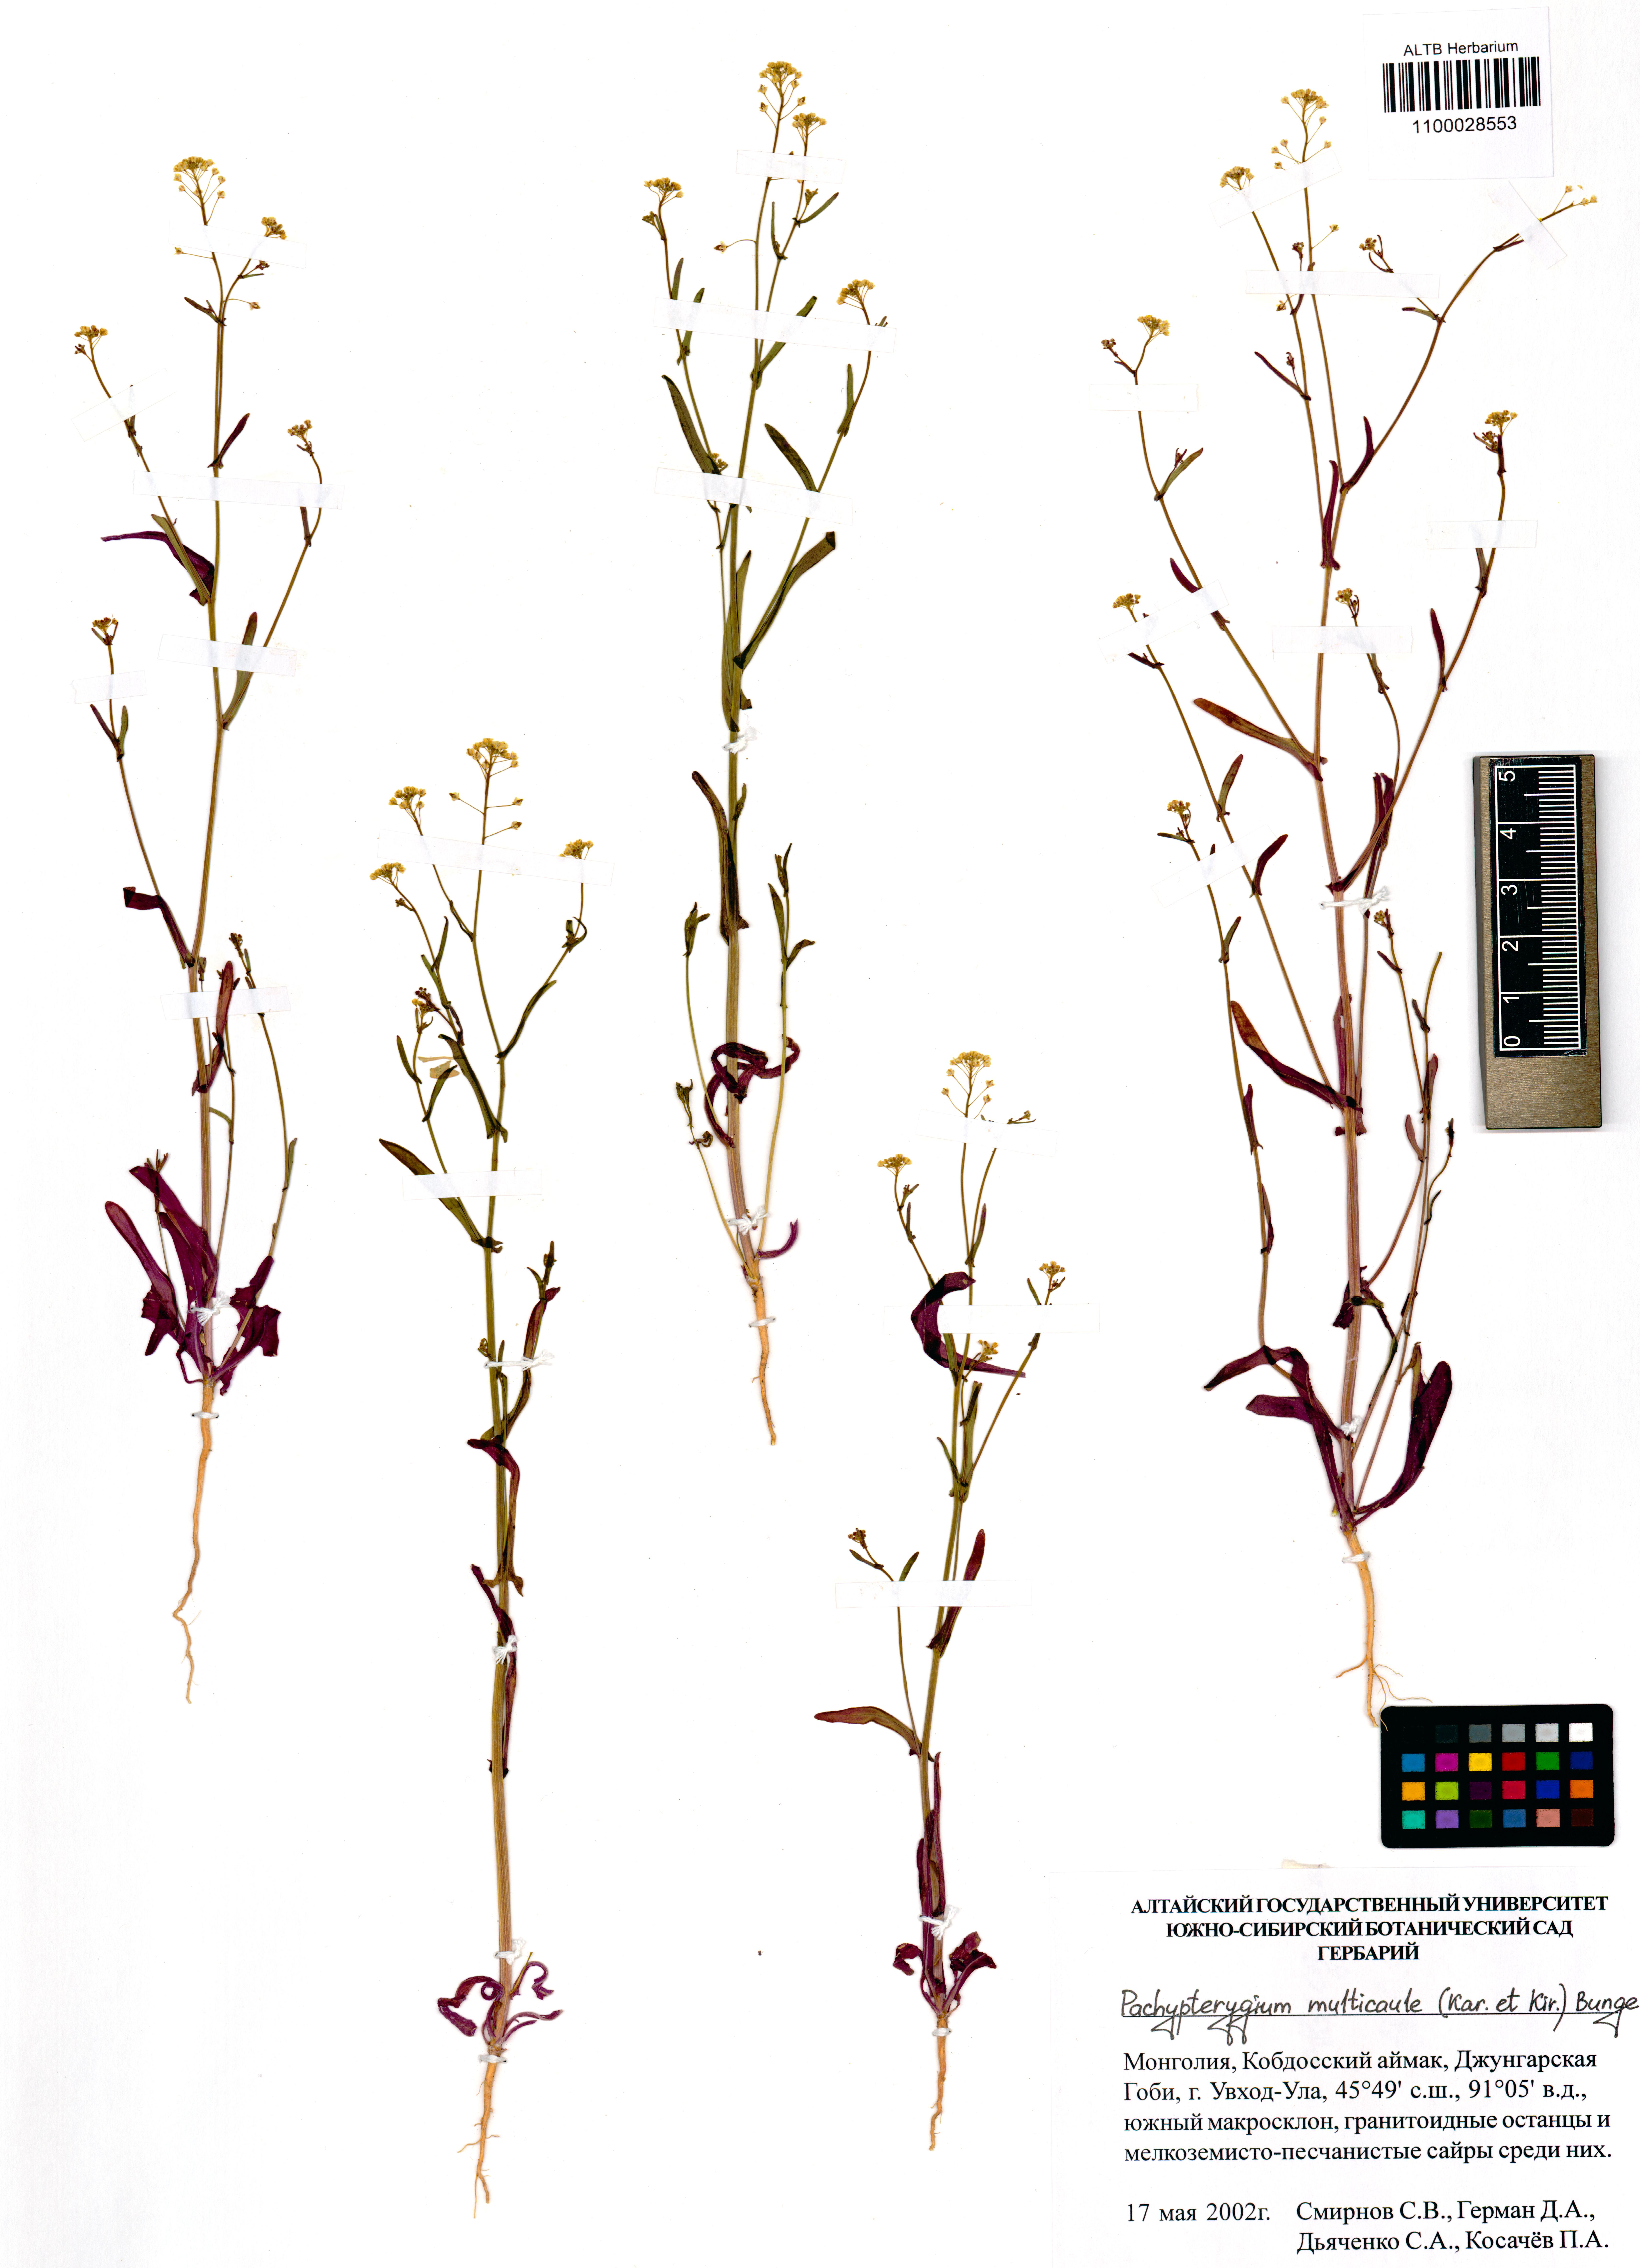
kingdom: Plantae
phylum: Tracheophyta
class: Magnoliopsida
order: Brassicales
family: Brassicaceae
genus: Isatis
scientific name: Isatis multicaulis
